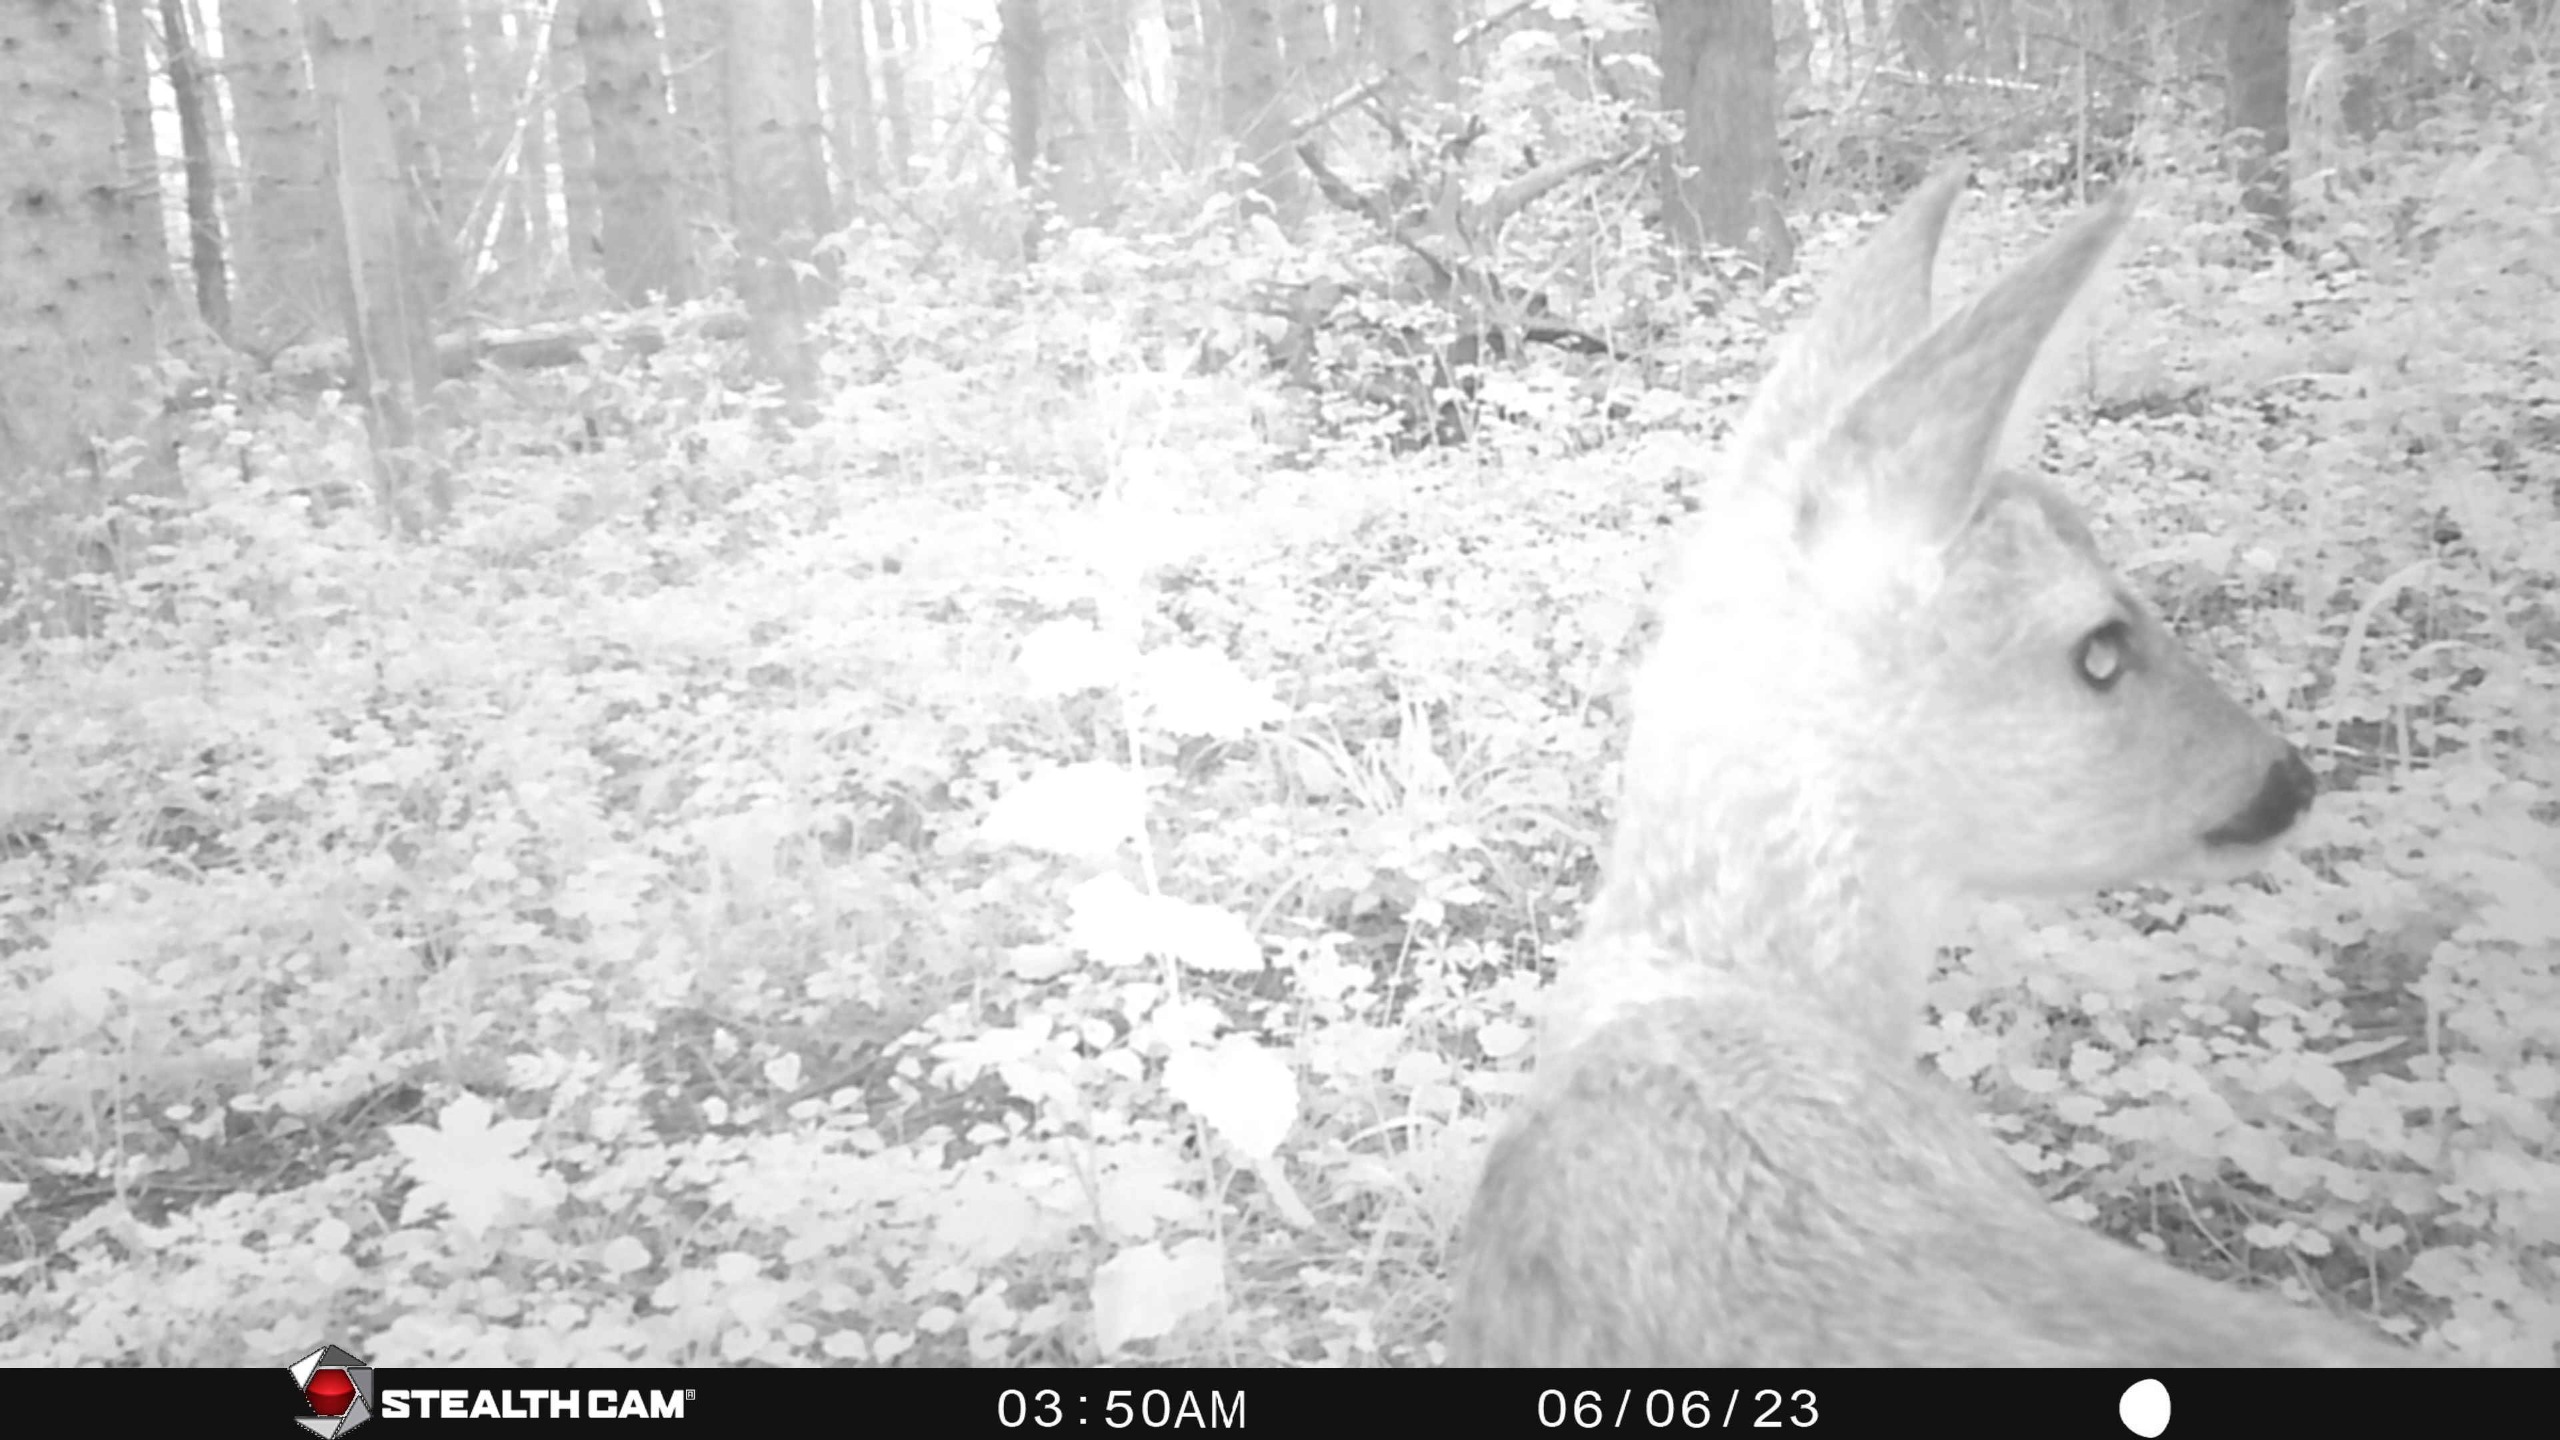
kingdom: Animalia
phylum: Chordata
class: Mammalia
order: Artiodactyla
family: Cervidae
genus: Capreolus
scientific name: Capreolus capreolus
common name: Rådyr
